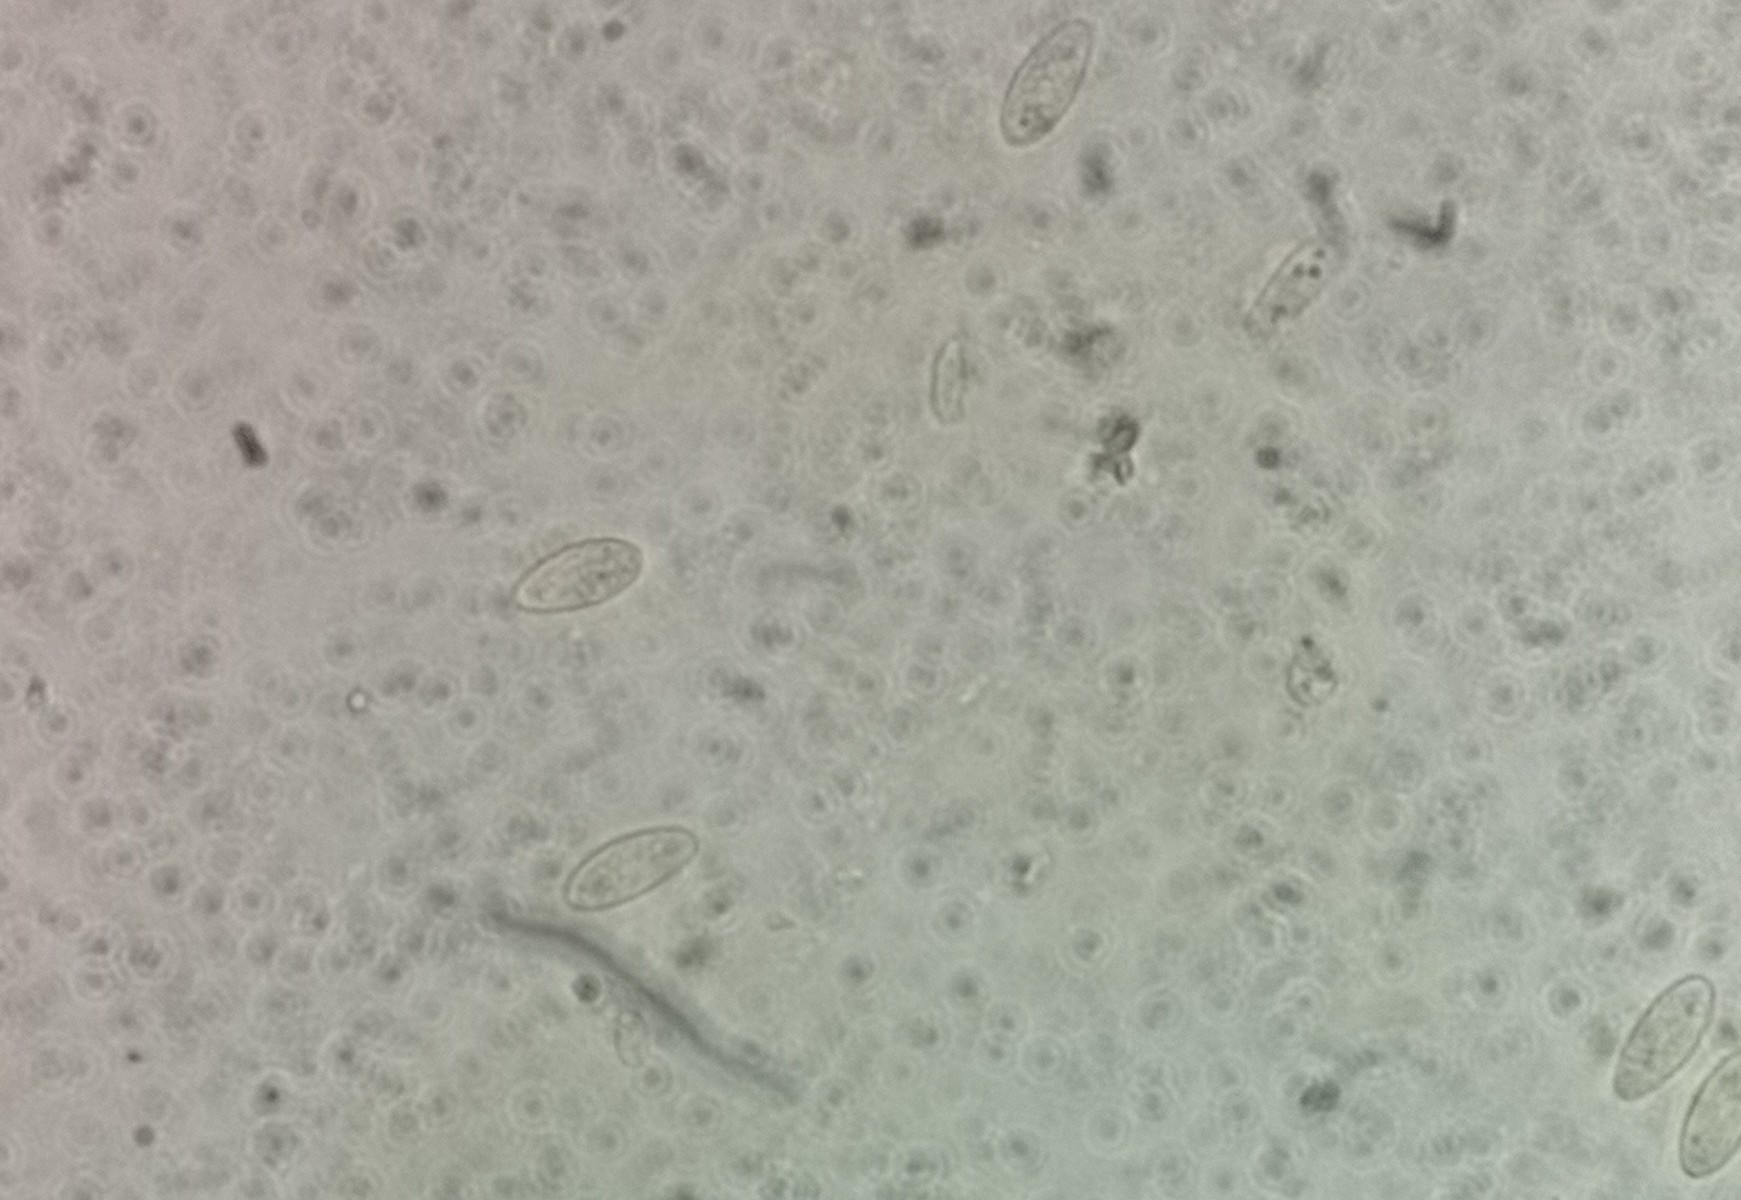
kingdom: Fungi
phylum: Ascomycota
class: Leotiomycetes
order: Helotiales
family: Lachnaceae
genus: Lachnum
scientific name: Lachnum
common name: frynseskive
